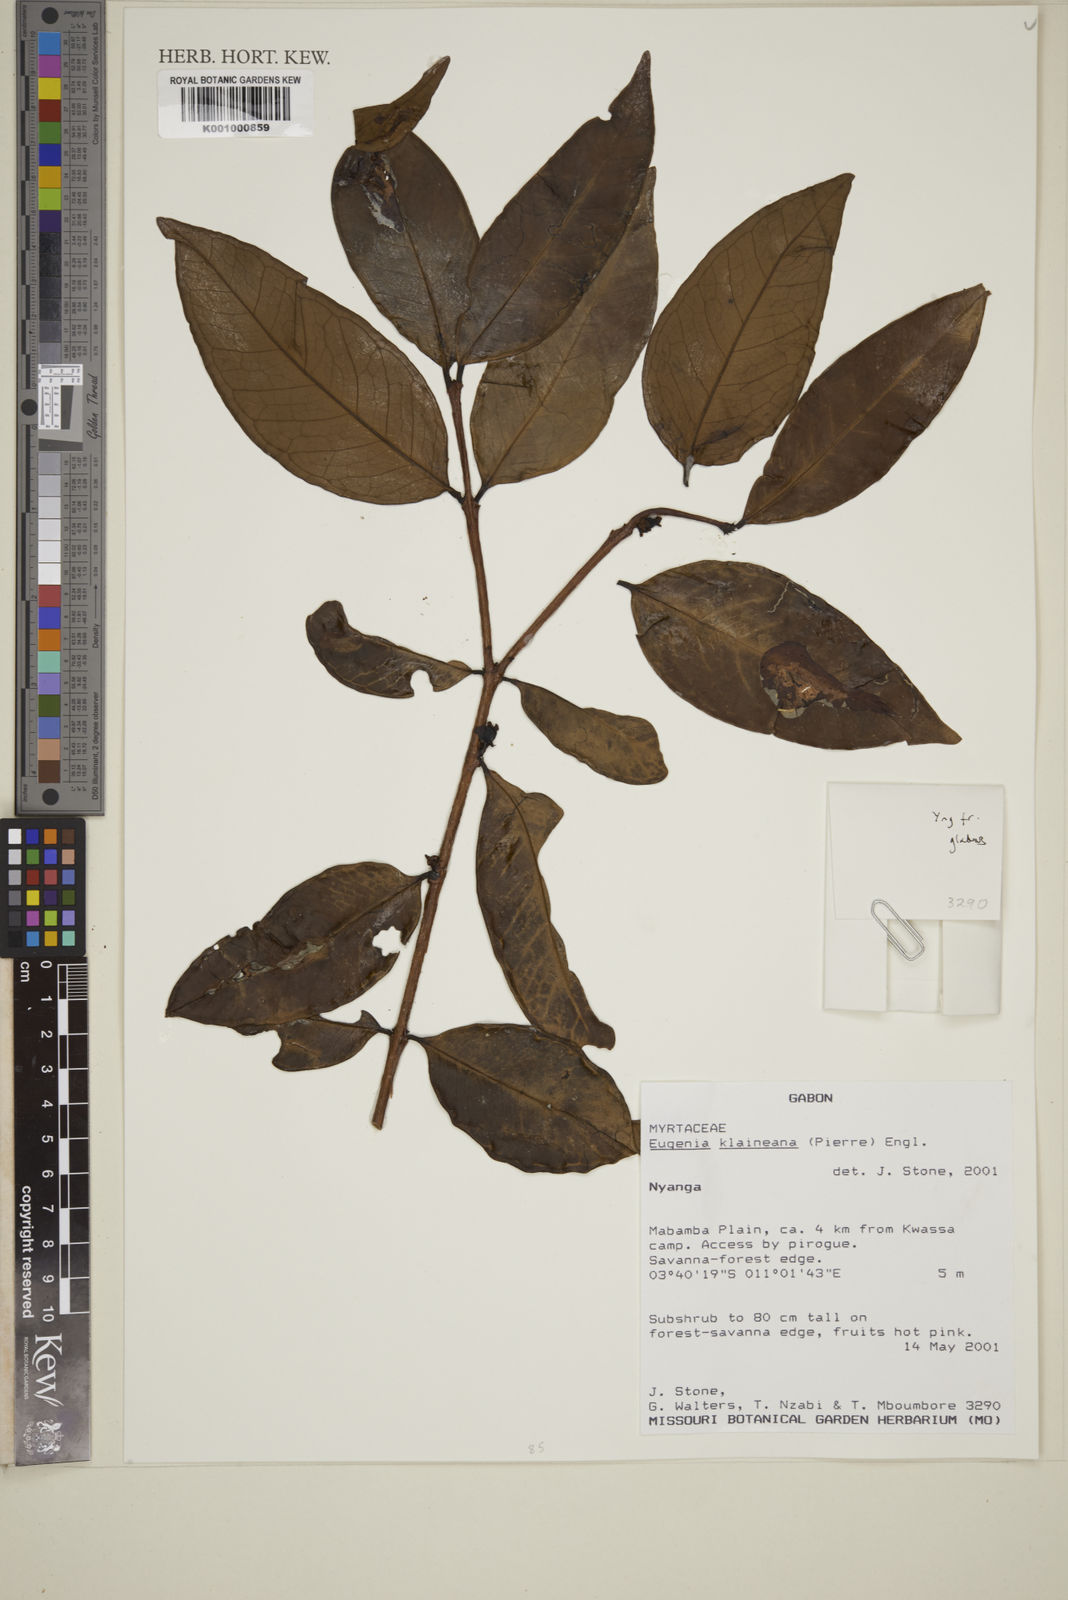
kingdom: Plantae
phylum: Tracheophyta
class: Magnoliopsida
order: Myrtales
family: Myrtaceae
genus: Eugenia
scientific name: Eugenia klaineana
